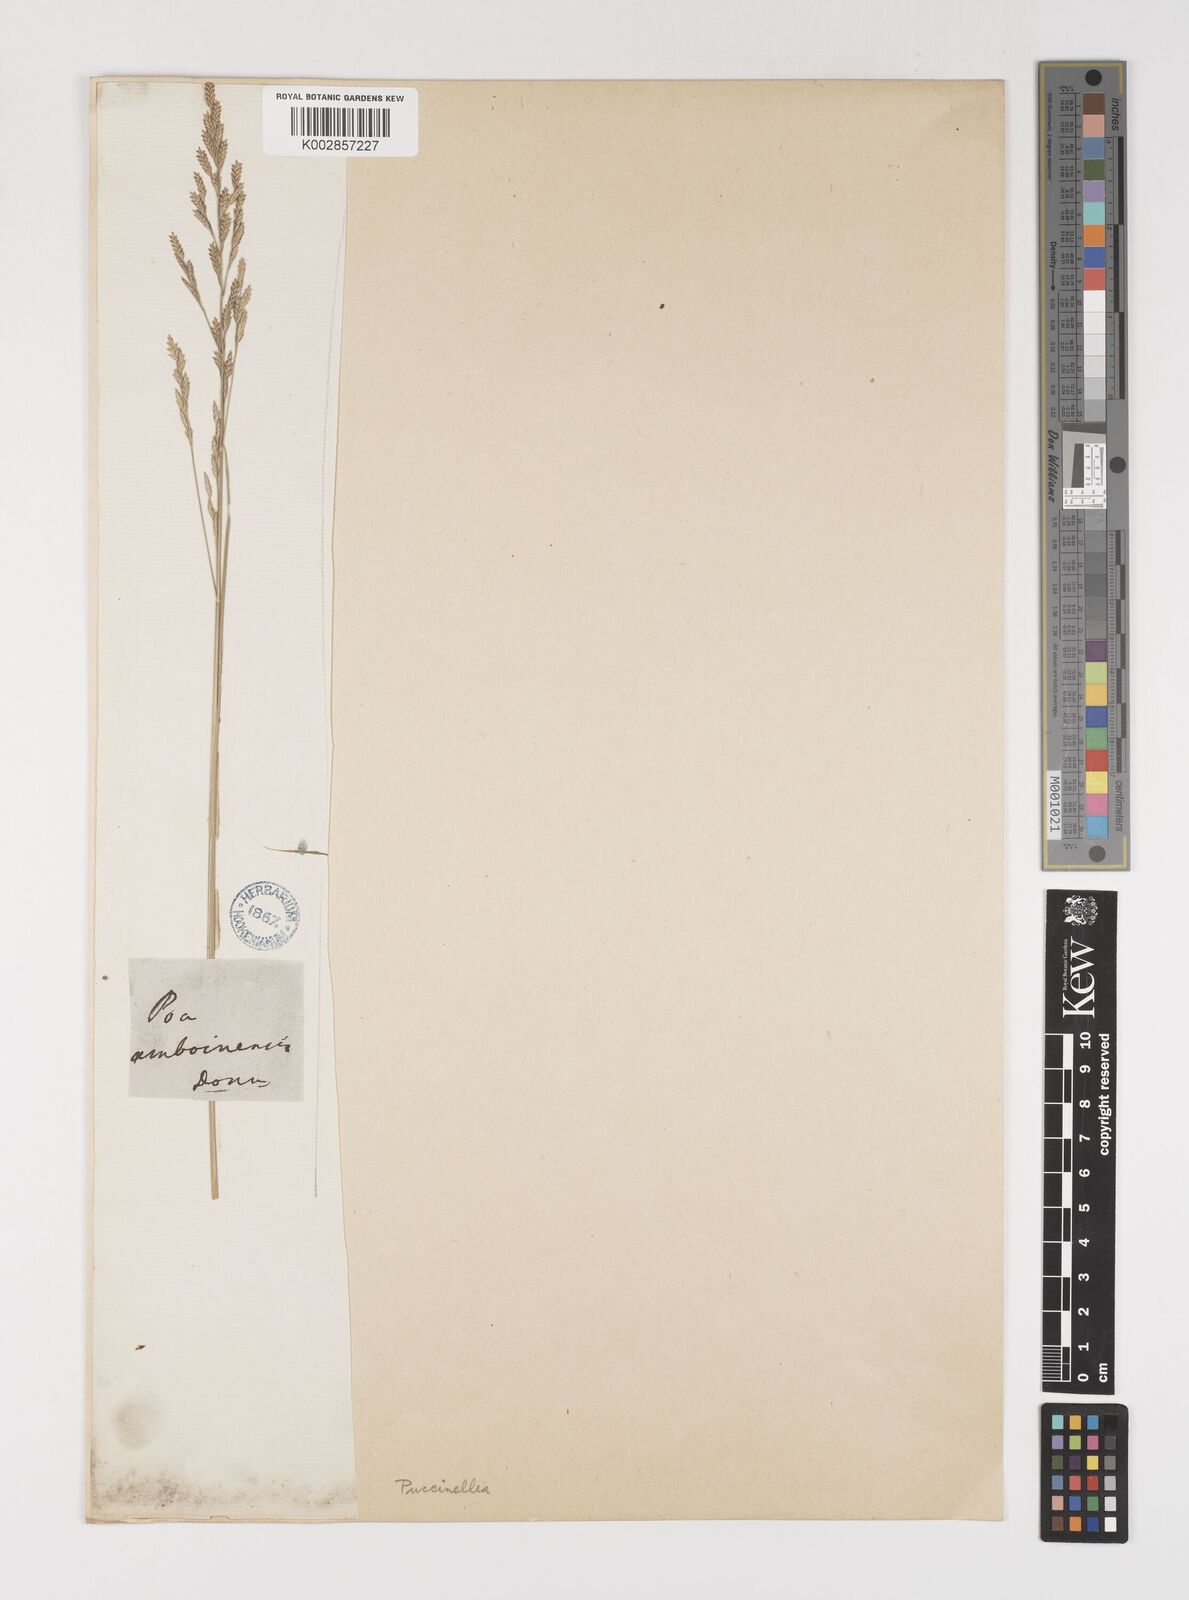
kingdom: Plantae
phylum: Tracheophyta
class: Liliopsida
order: Poales
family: Poaceae
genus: Puccinellia
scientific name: Puccinellia
